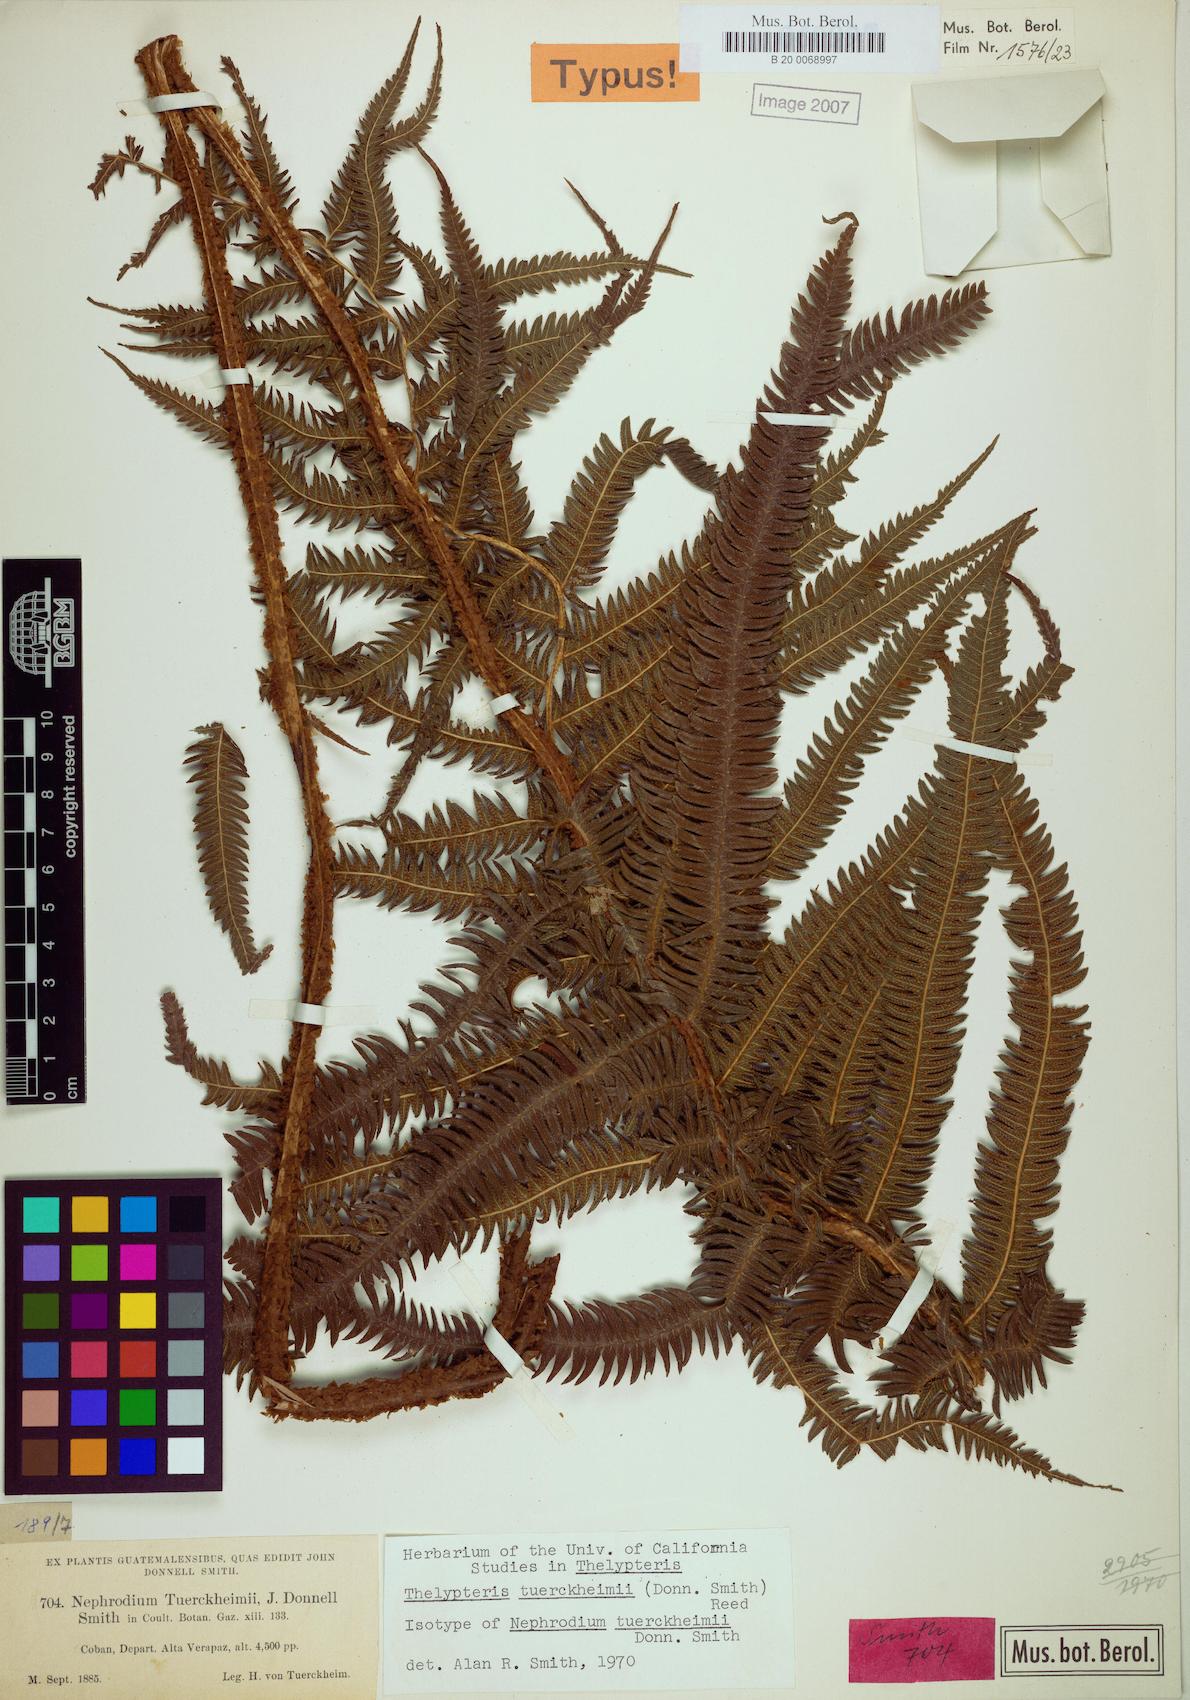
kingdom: Plantae
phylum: Tracheophyta
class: Polypodiopsida
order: Polypodiales
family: Thelypteridaceae
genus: Pelazoneuron
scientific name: Pelazoneuron tuerckheimii
